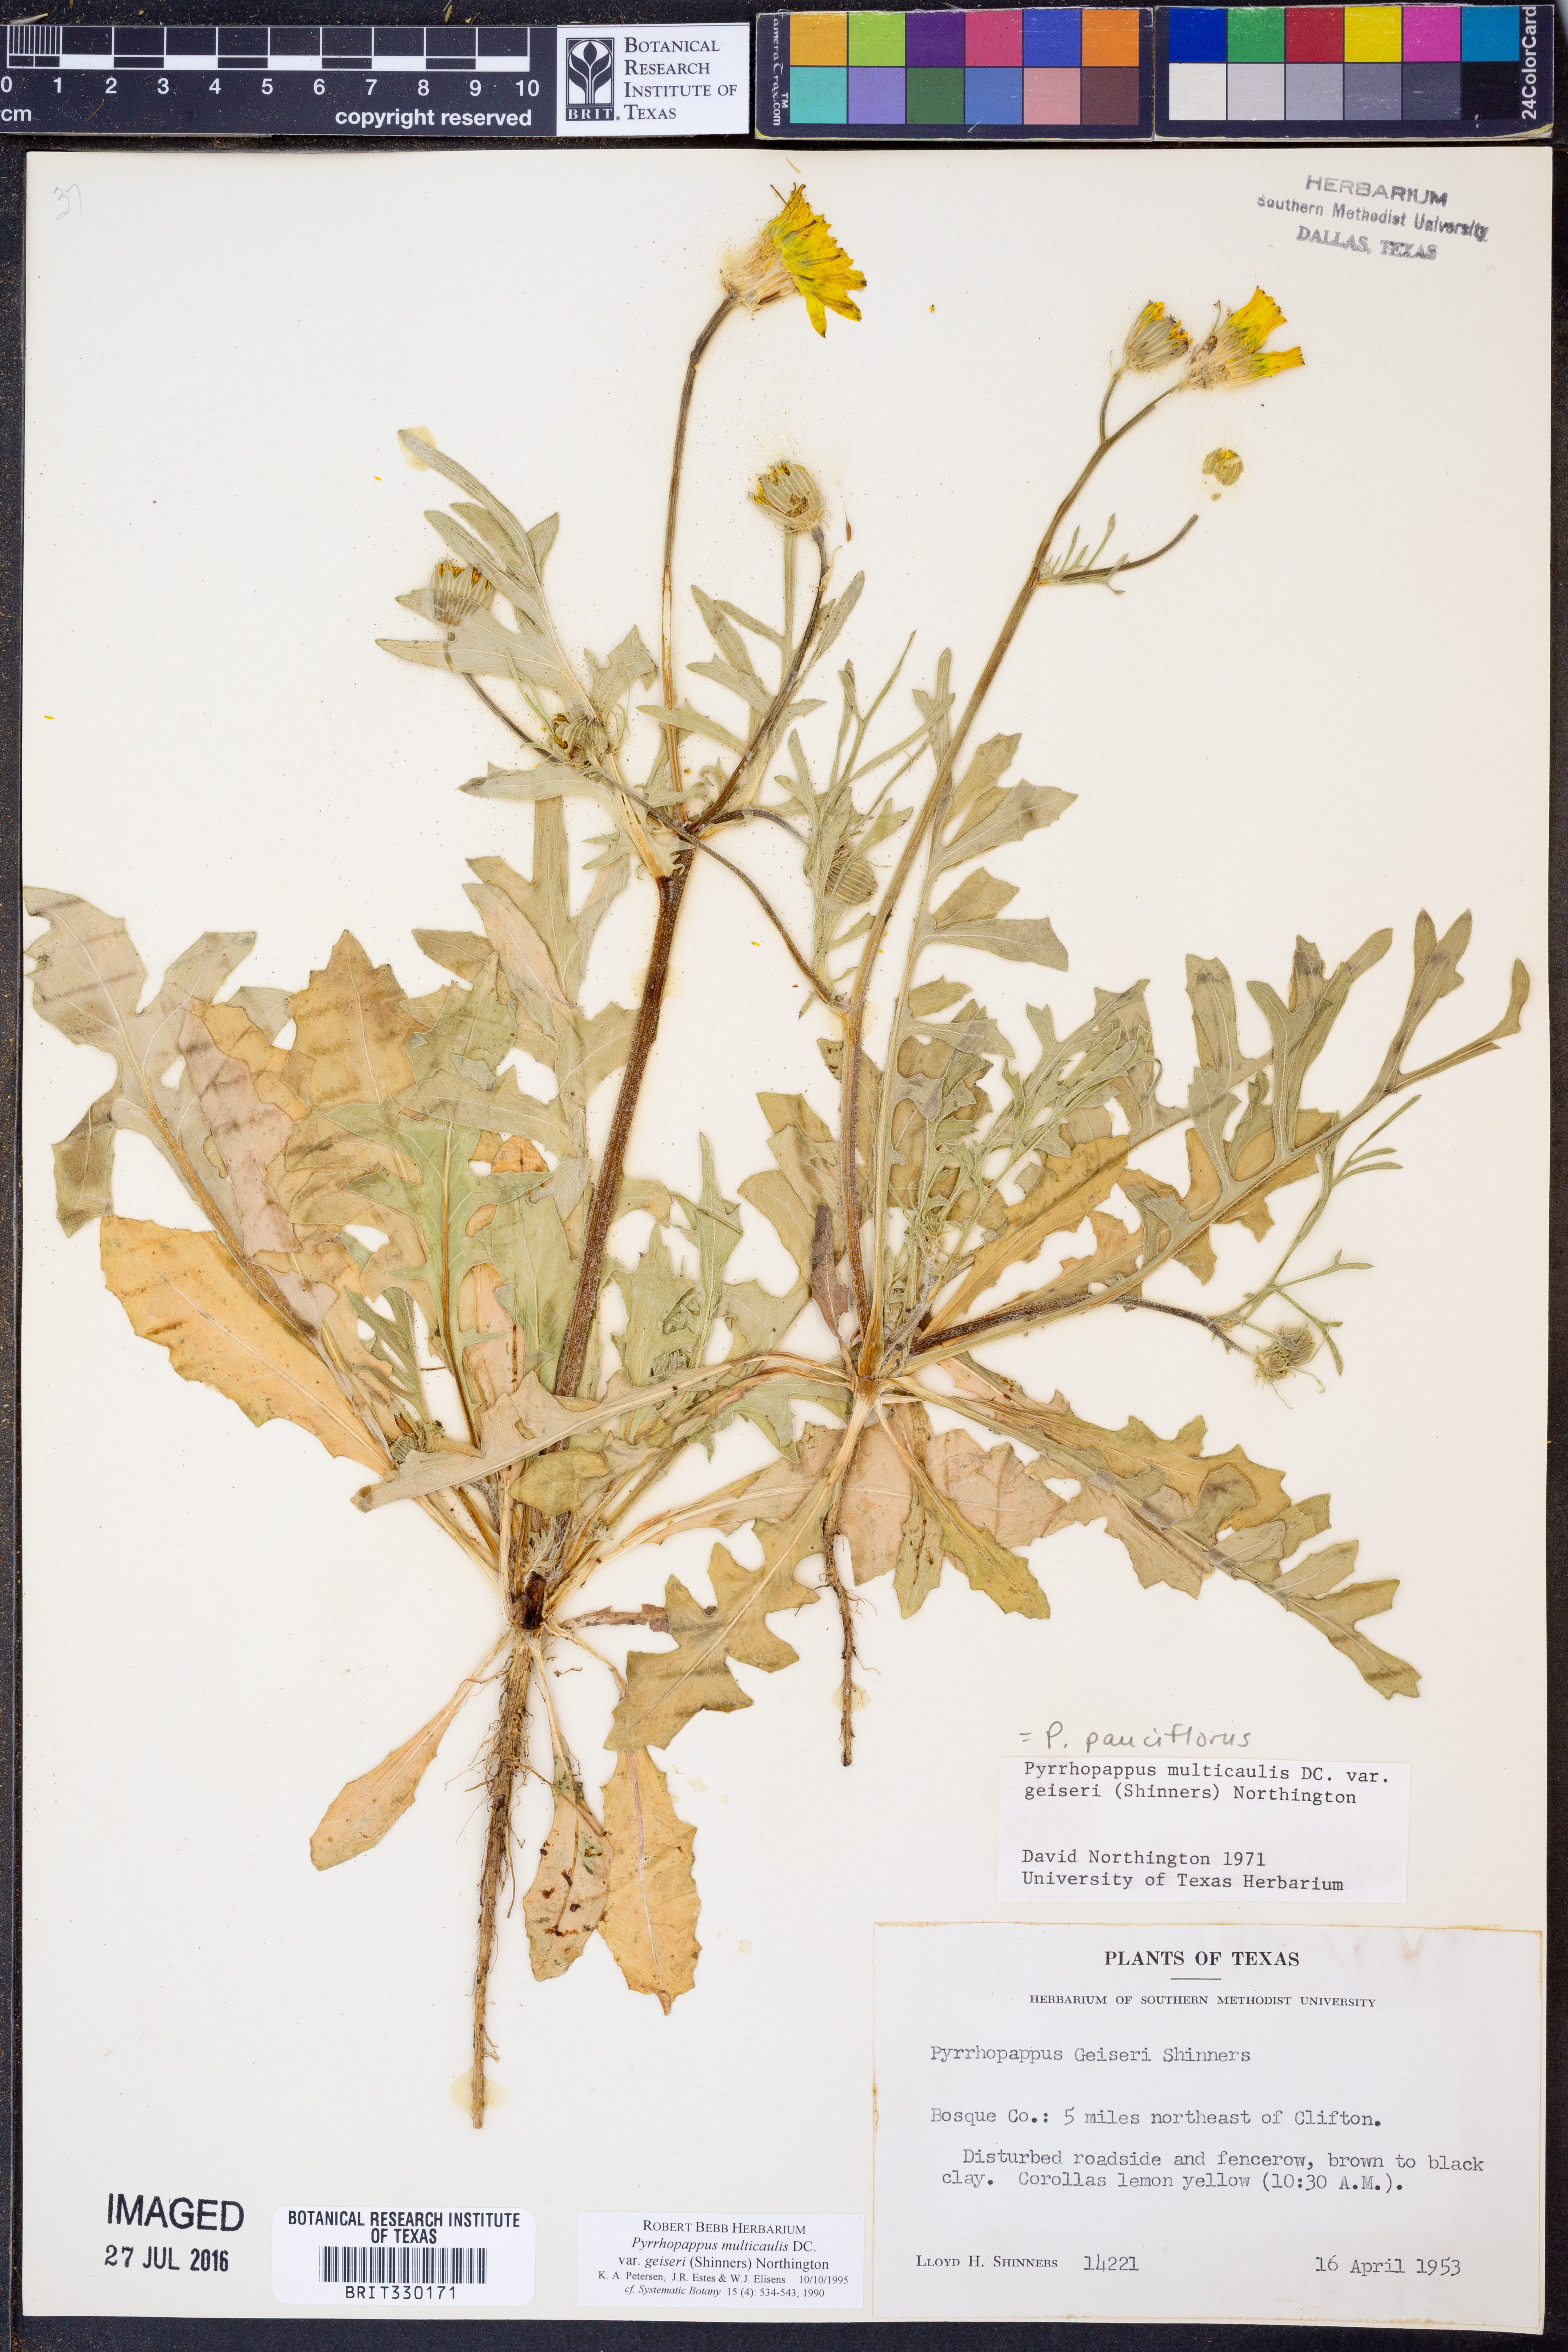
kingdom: Plantae
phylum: Tracheophyta
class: Magnoliopsida
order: Asterales
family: Asteraceae
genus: Pyrrhopappus
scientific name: Pyrrhopappus pauciflorus
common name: Texas false dandelion
